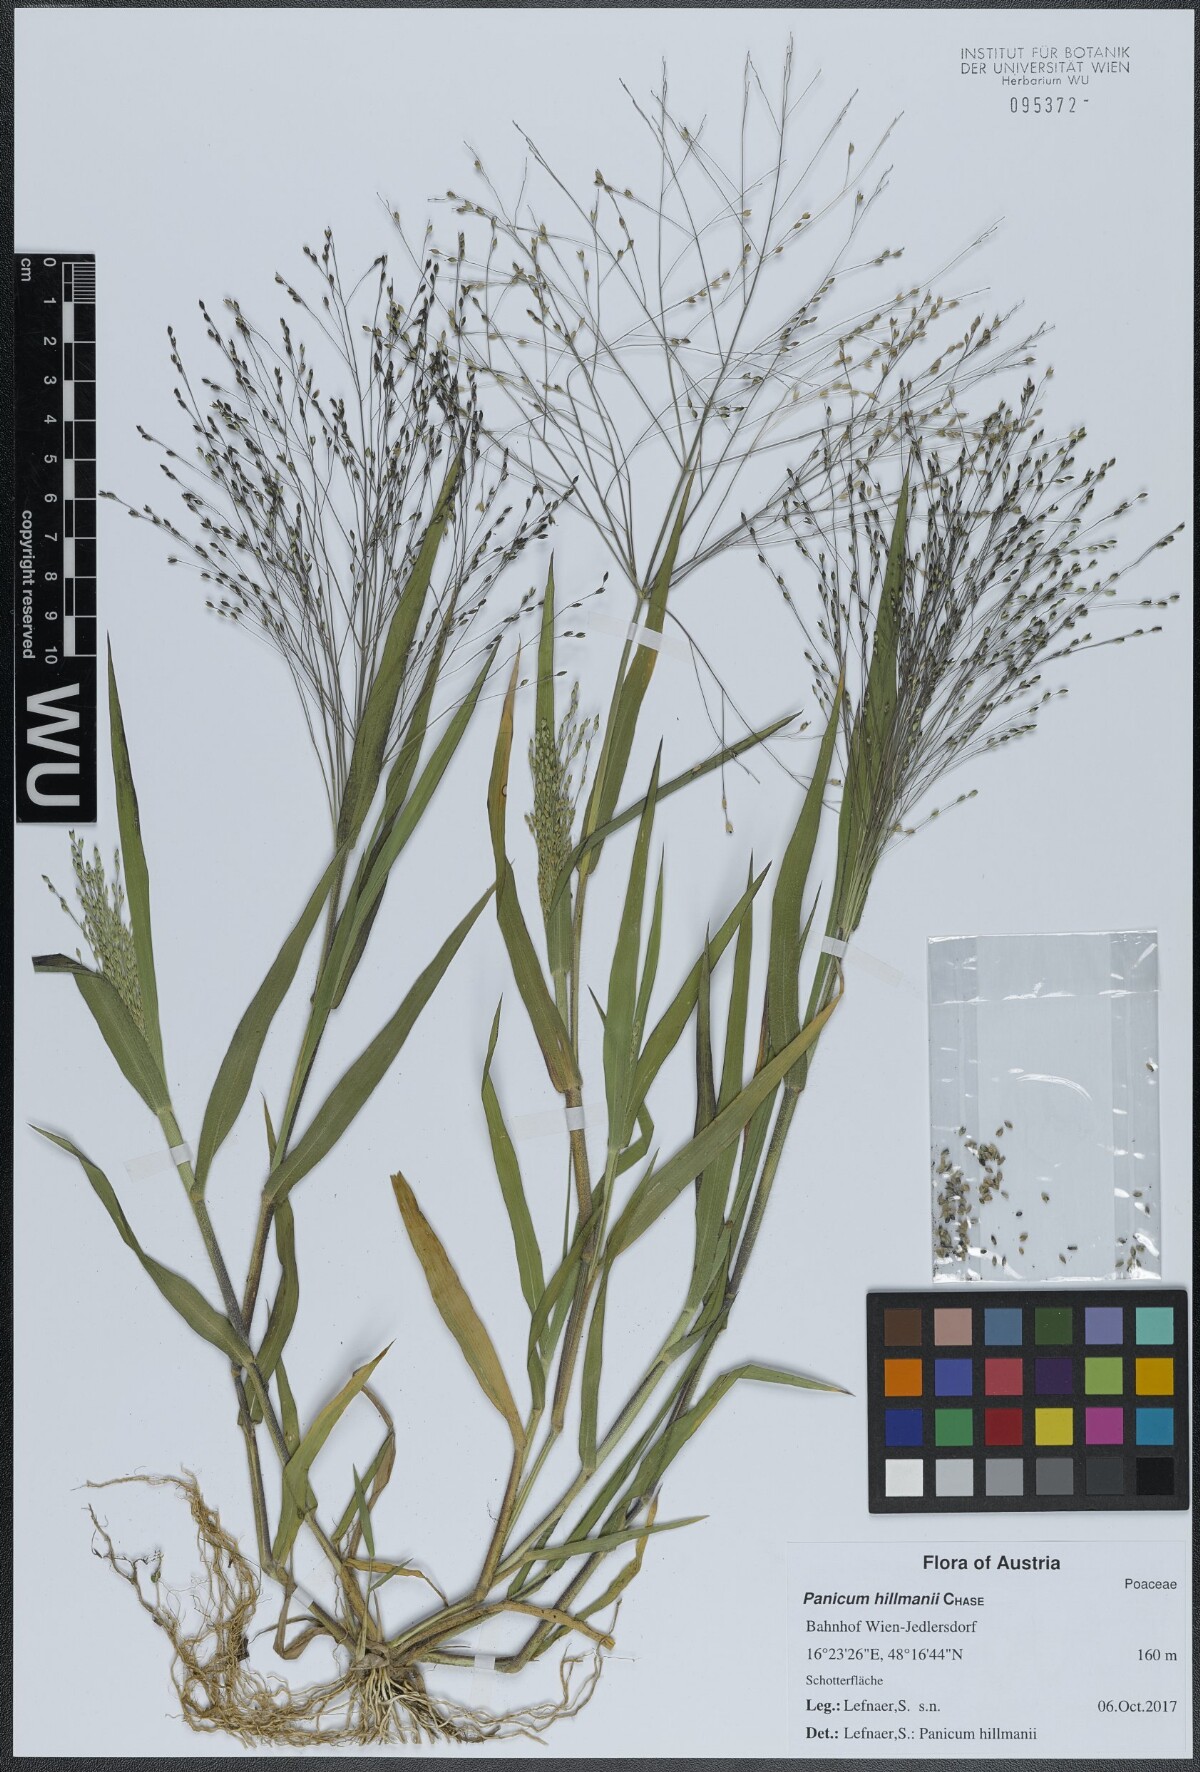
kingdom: Plantae
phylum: Tracheophyta
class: Liliopsida
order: Poales
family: Poaceae
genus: Panicum
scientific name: Panicum hillmanii
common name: Hillman's panicum
